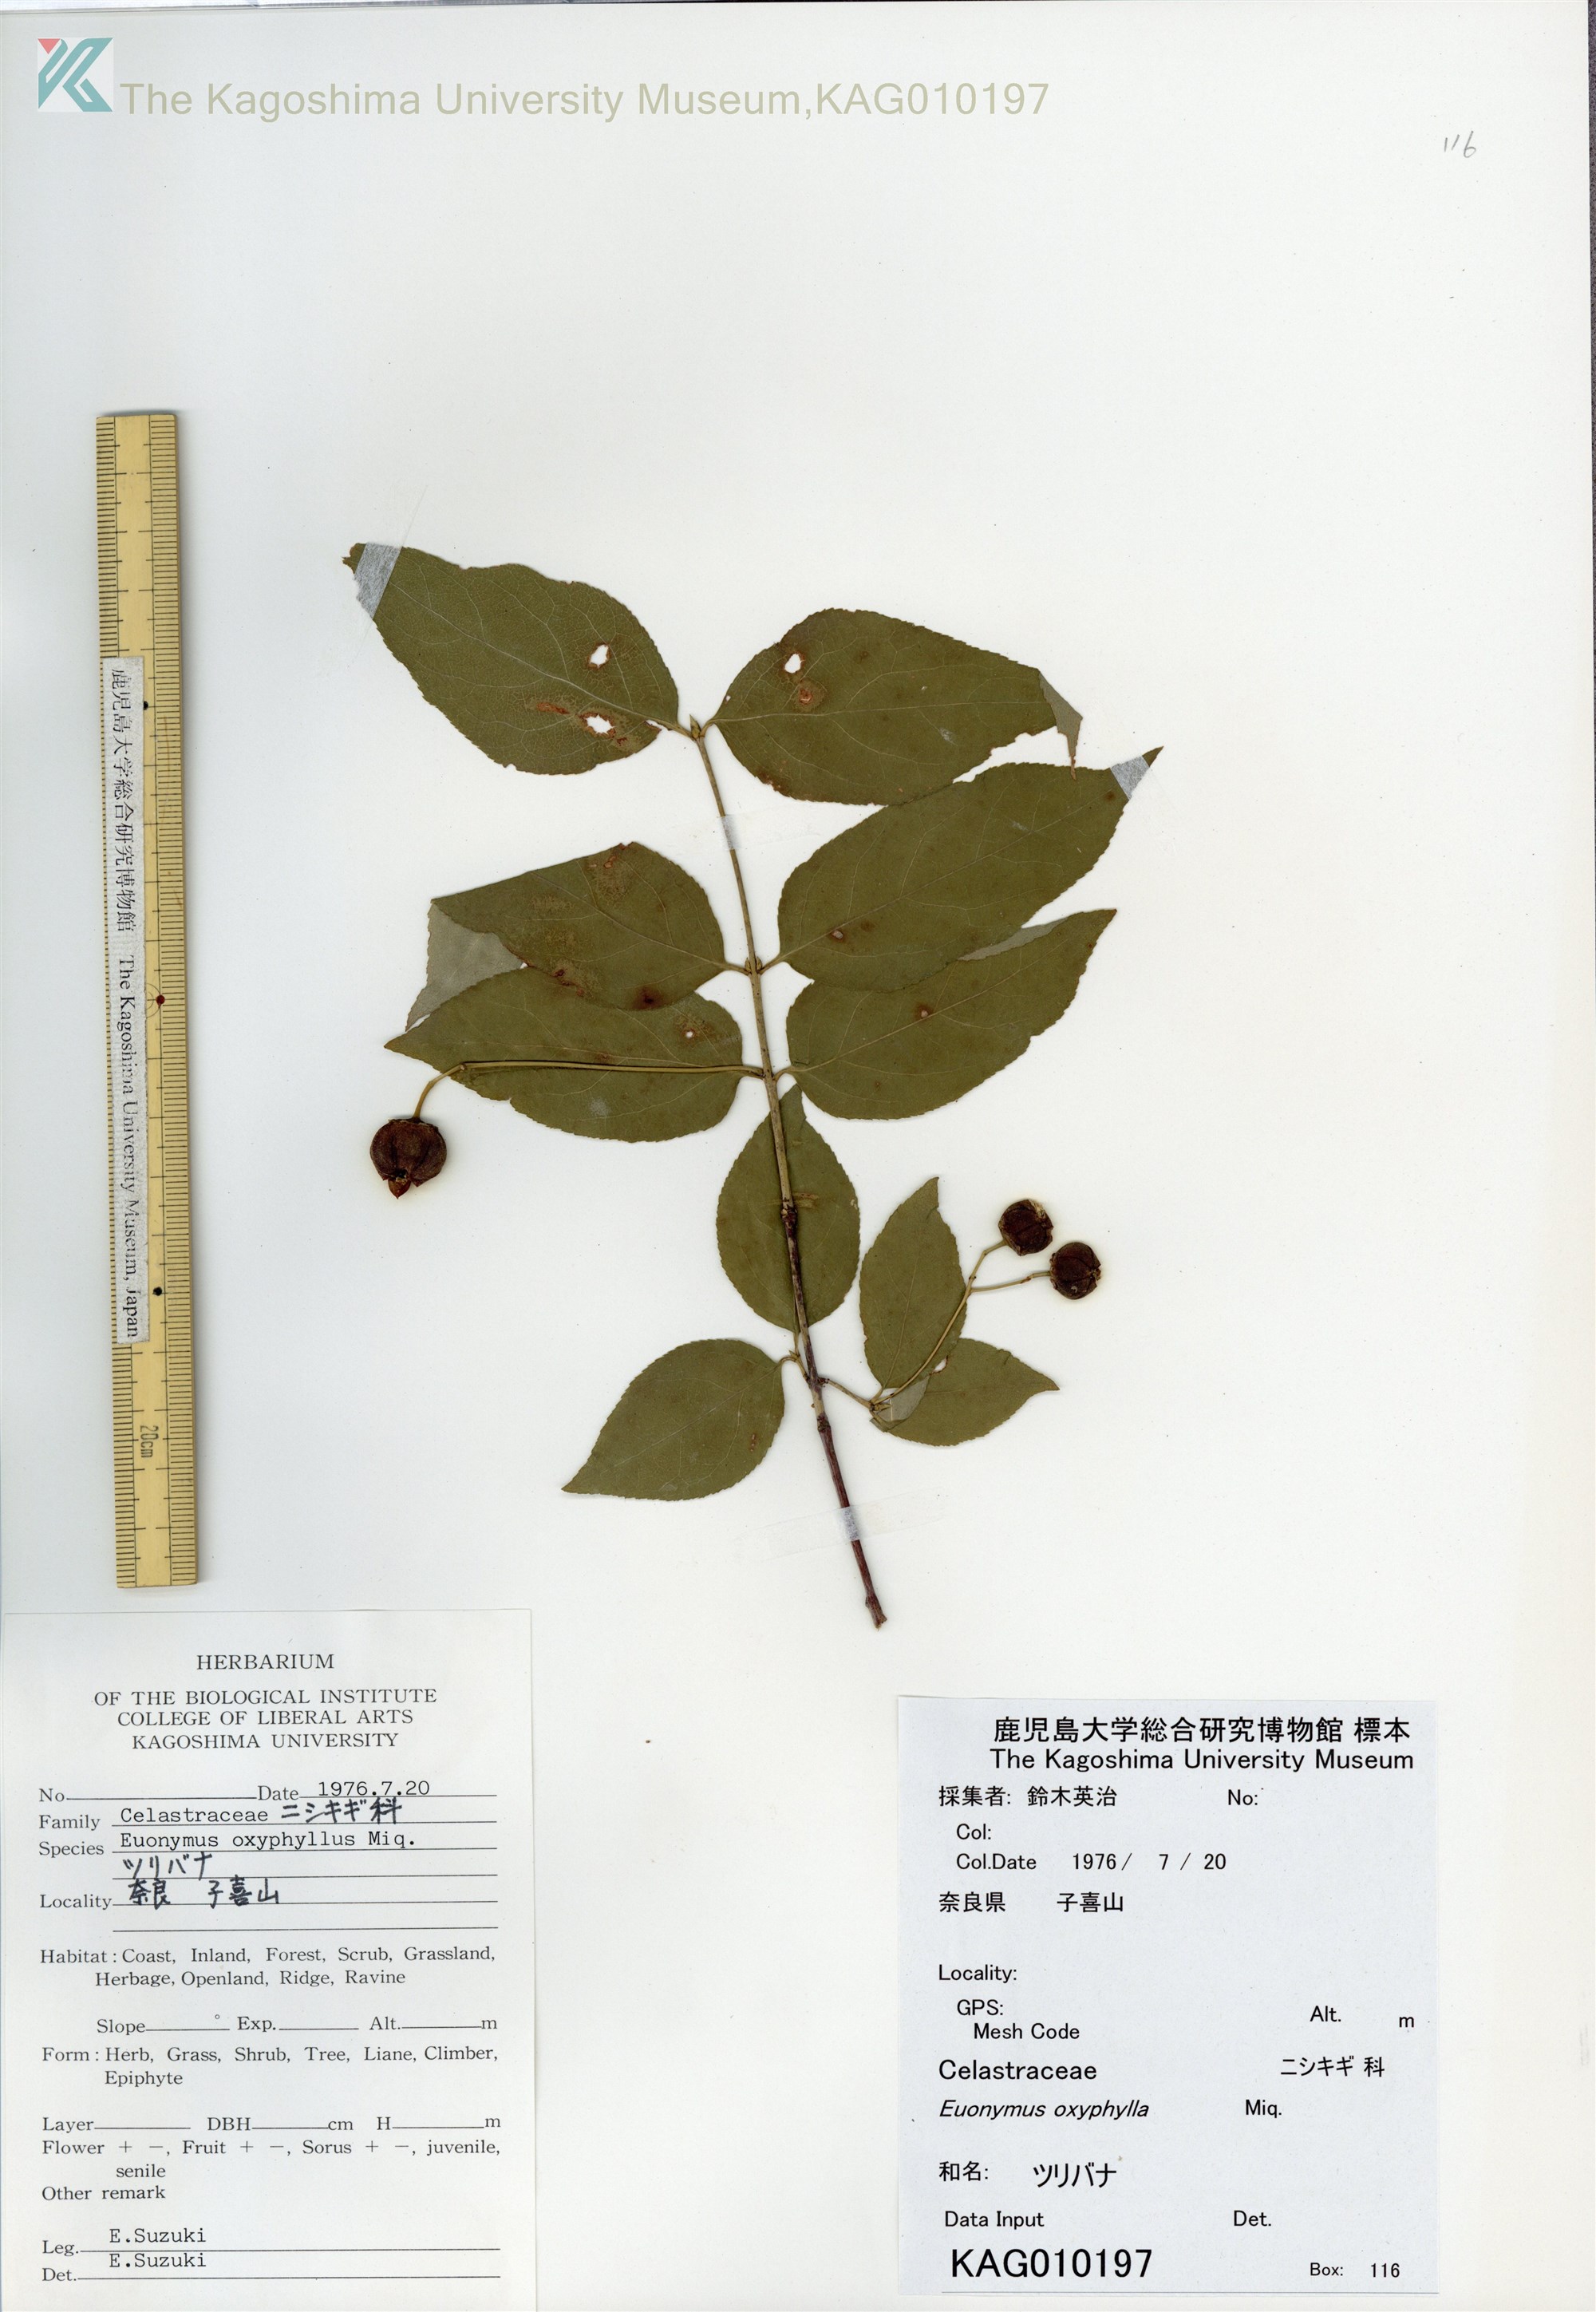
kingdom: Plantae
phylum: Tracheophyta
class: Magnoliopsida
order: Celastrales
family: Celastraceae
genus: Euonymus
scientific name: Euonymus oxyphyllus
